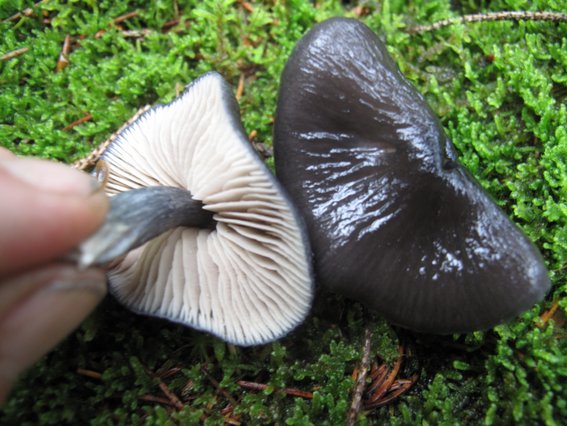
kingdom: Fungi
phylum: Basidiomycota
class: Agaricomycetes
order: Agaricales
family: Entolomataceae
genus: Entocybe
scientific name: Entocybe nitida
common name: stålblå rødblad
